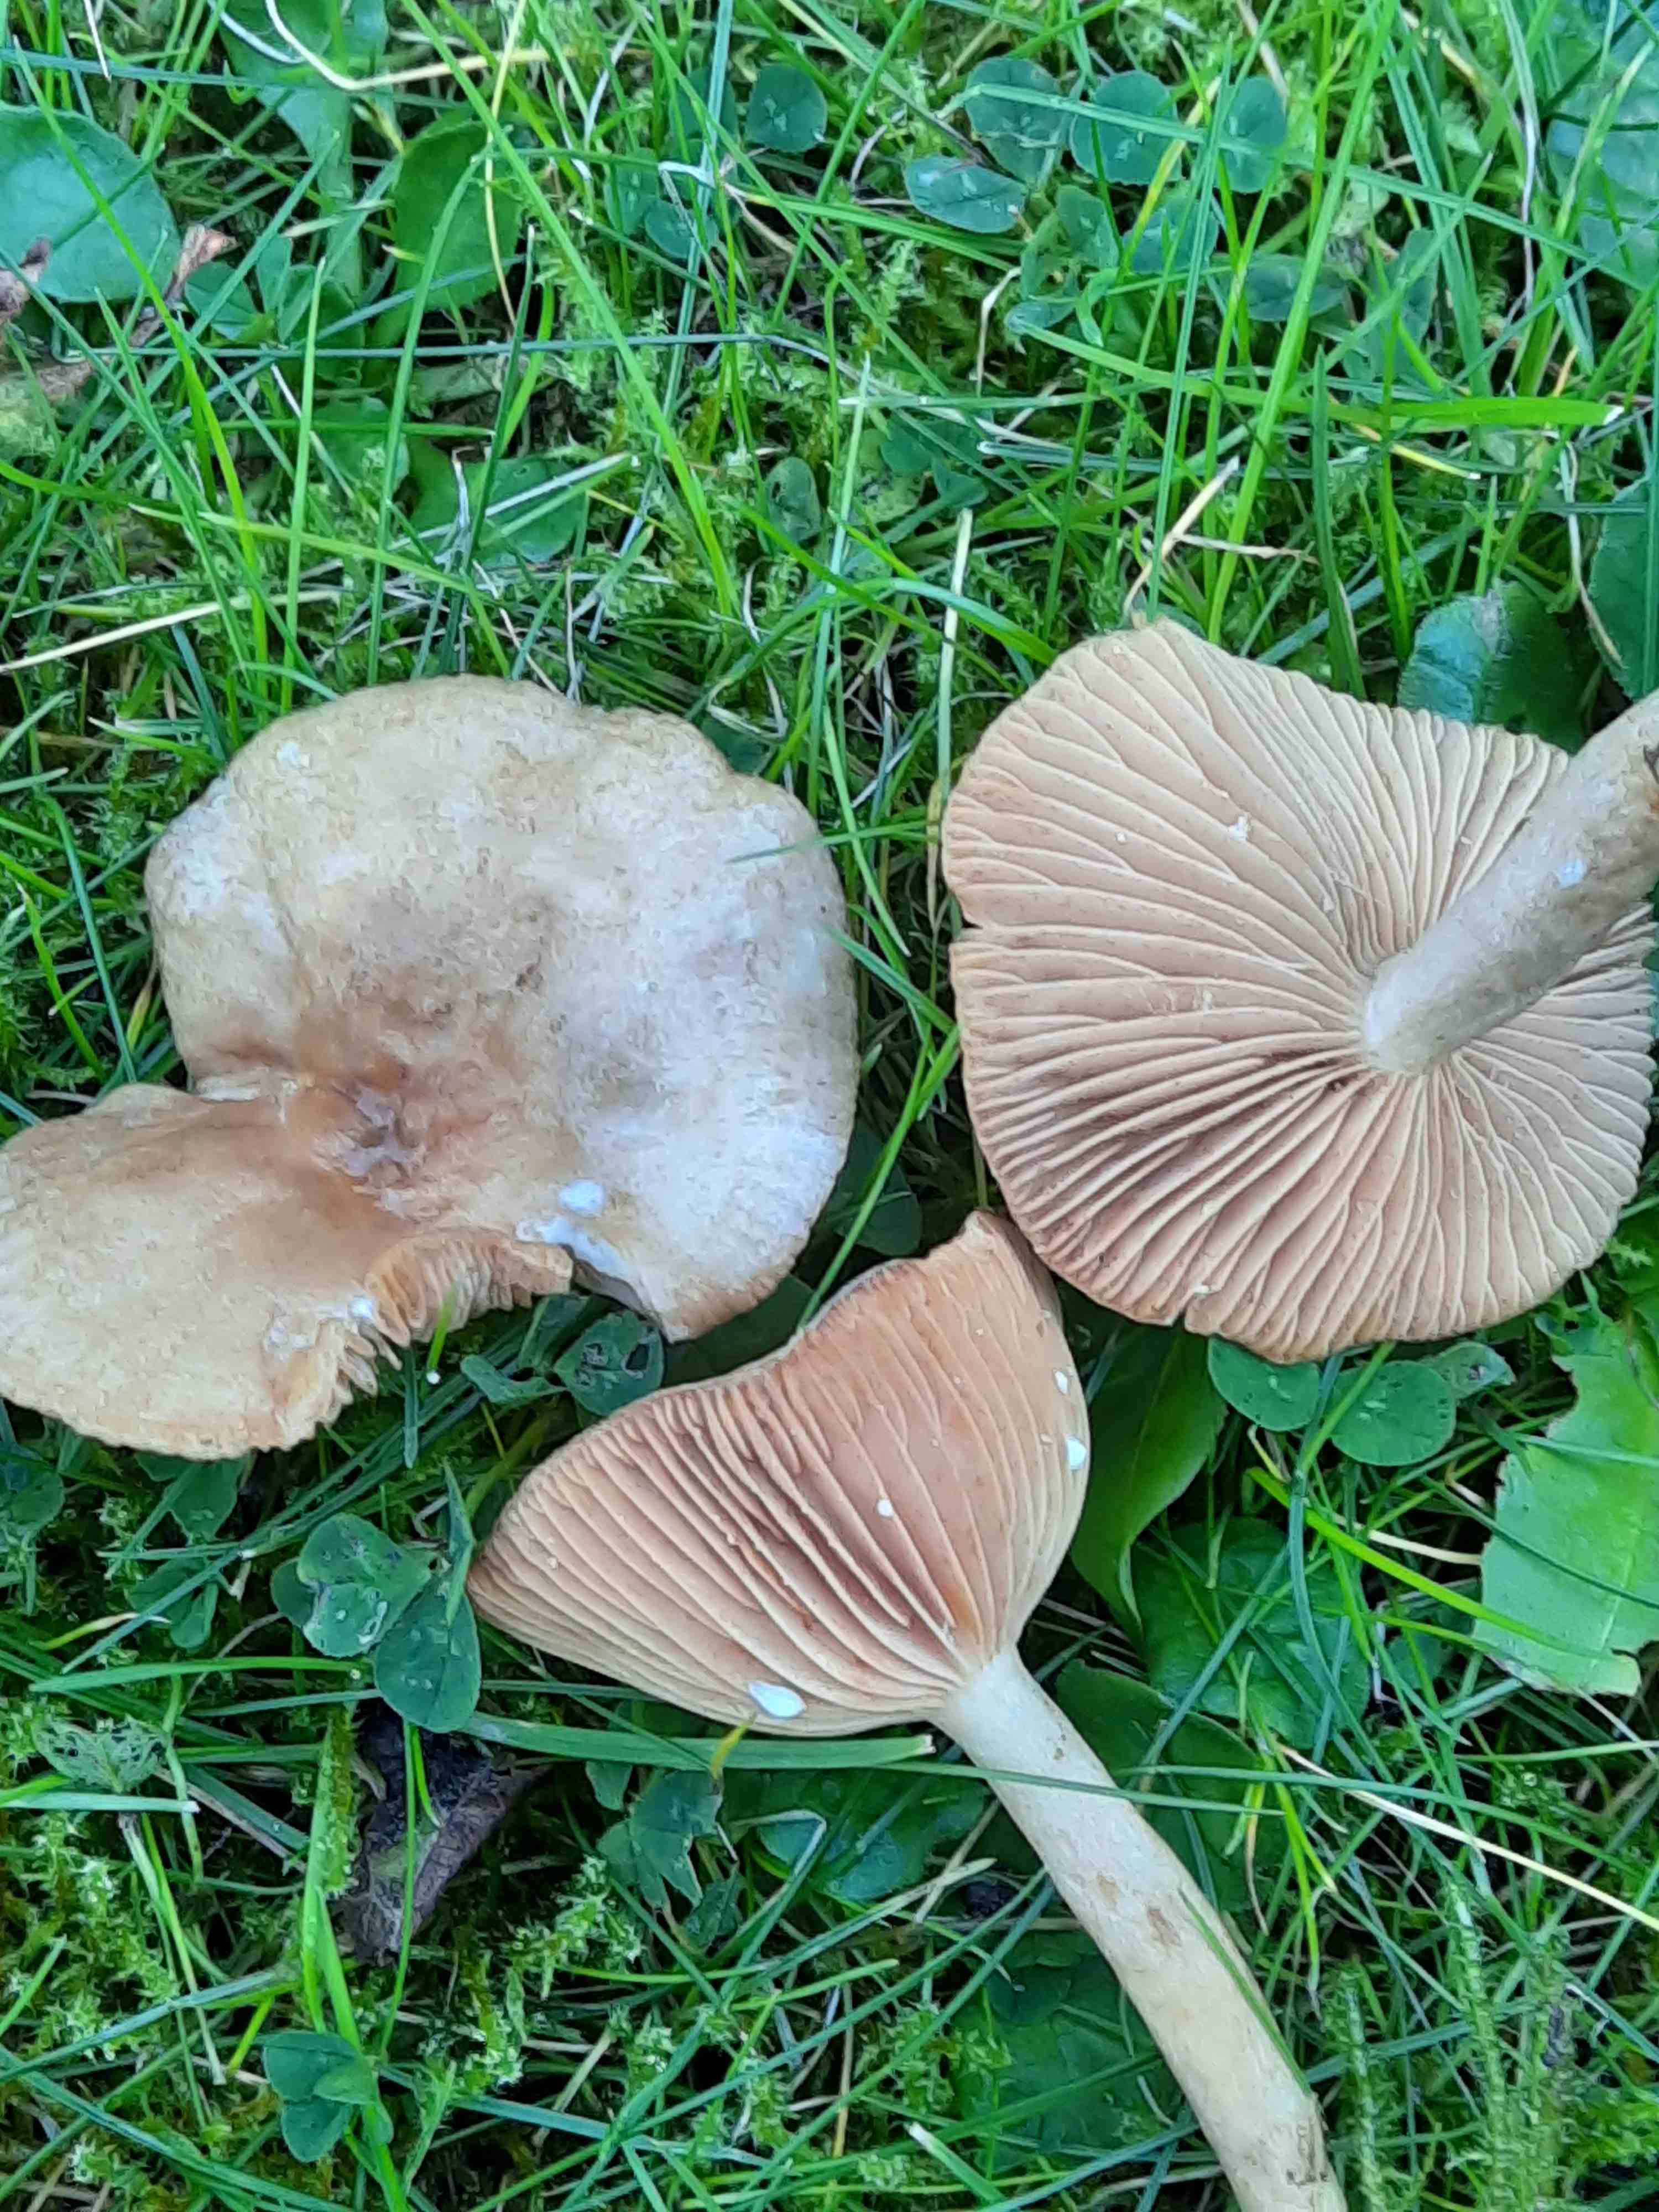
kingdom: Fungi
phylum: Basidiomycota
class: Agaricomycetes
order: Russulales
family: Russulaceae
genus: Lactarius
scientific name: Lactarius pyrogalus
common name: hassel-mælkehat
